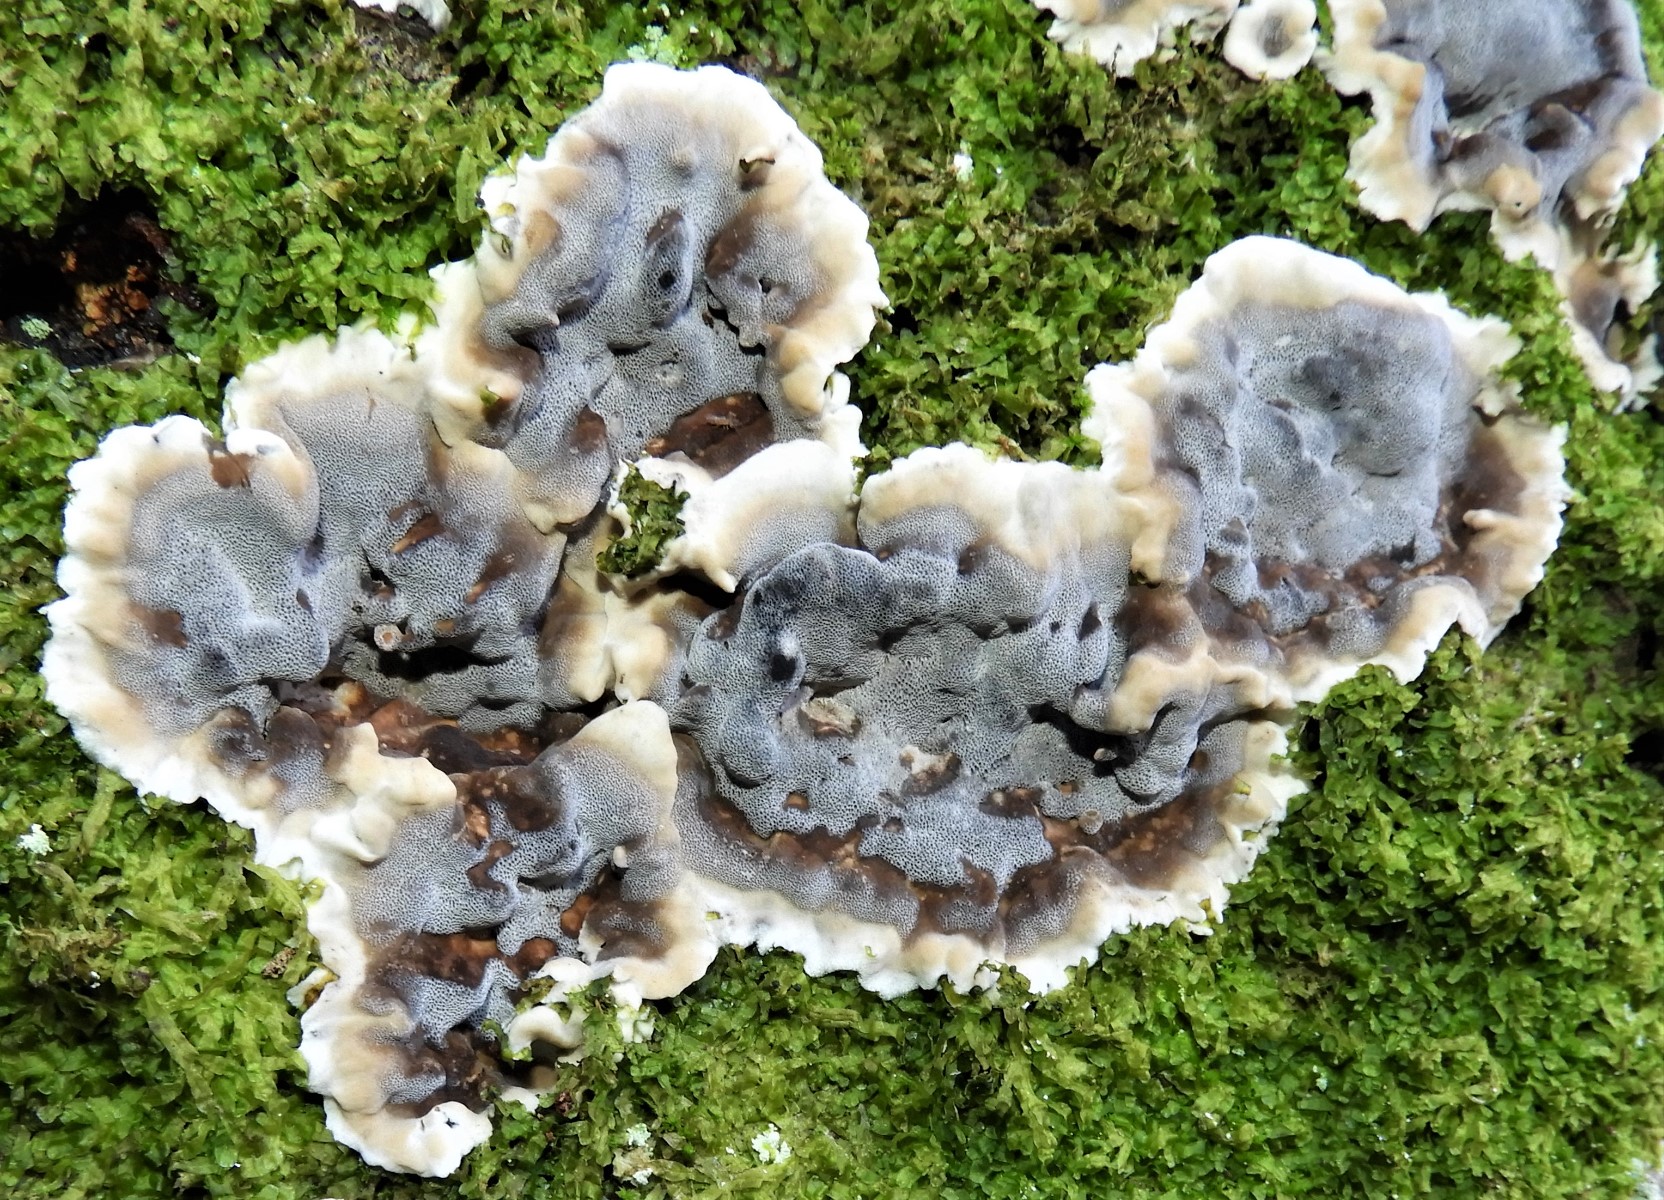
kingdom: Fungi
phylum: Basidiomycota
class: Agaricomycetes
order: Polyporales
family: Phanerochaetaceae
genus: Bjerkandera
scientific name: Bjerkandera adusta
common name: sveden sodporesvamp
